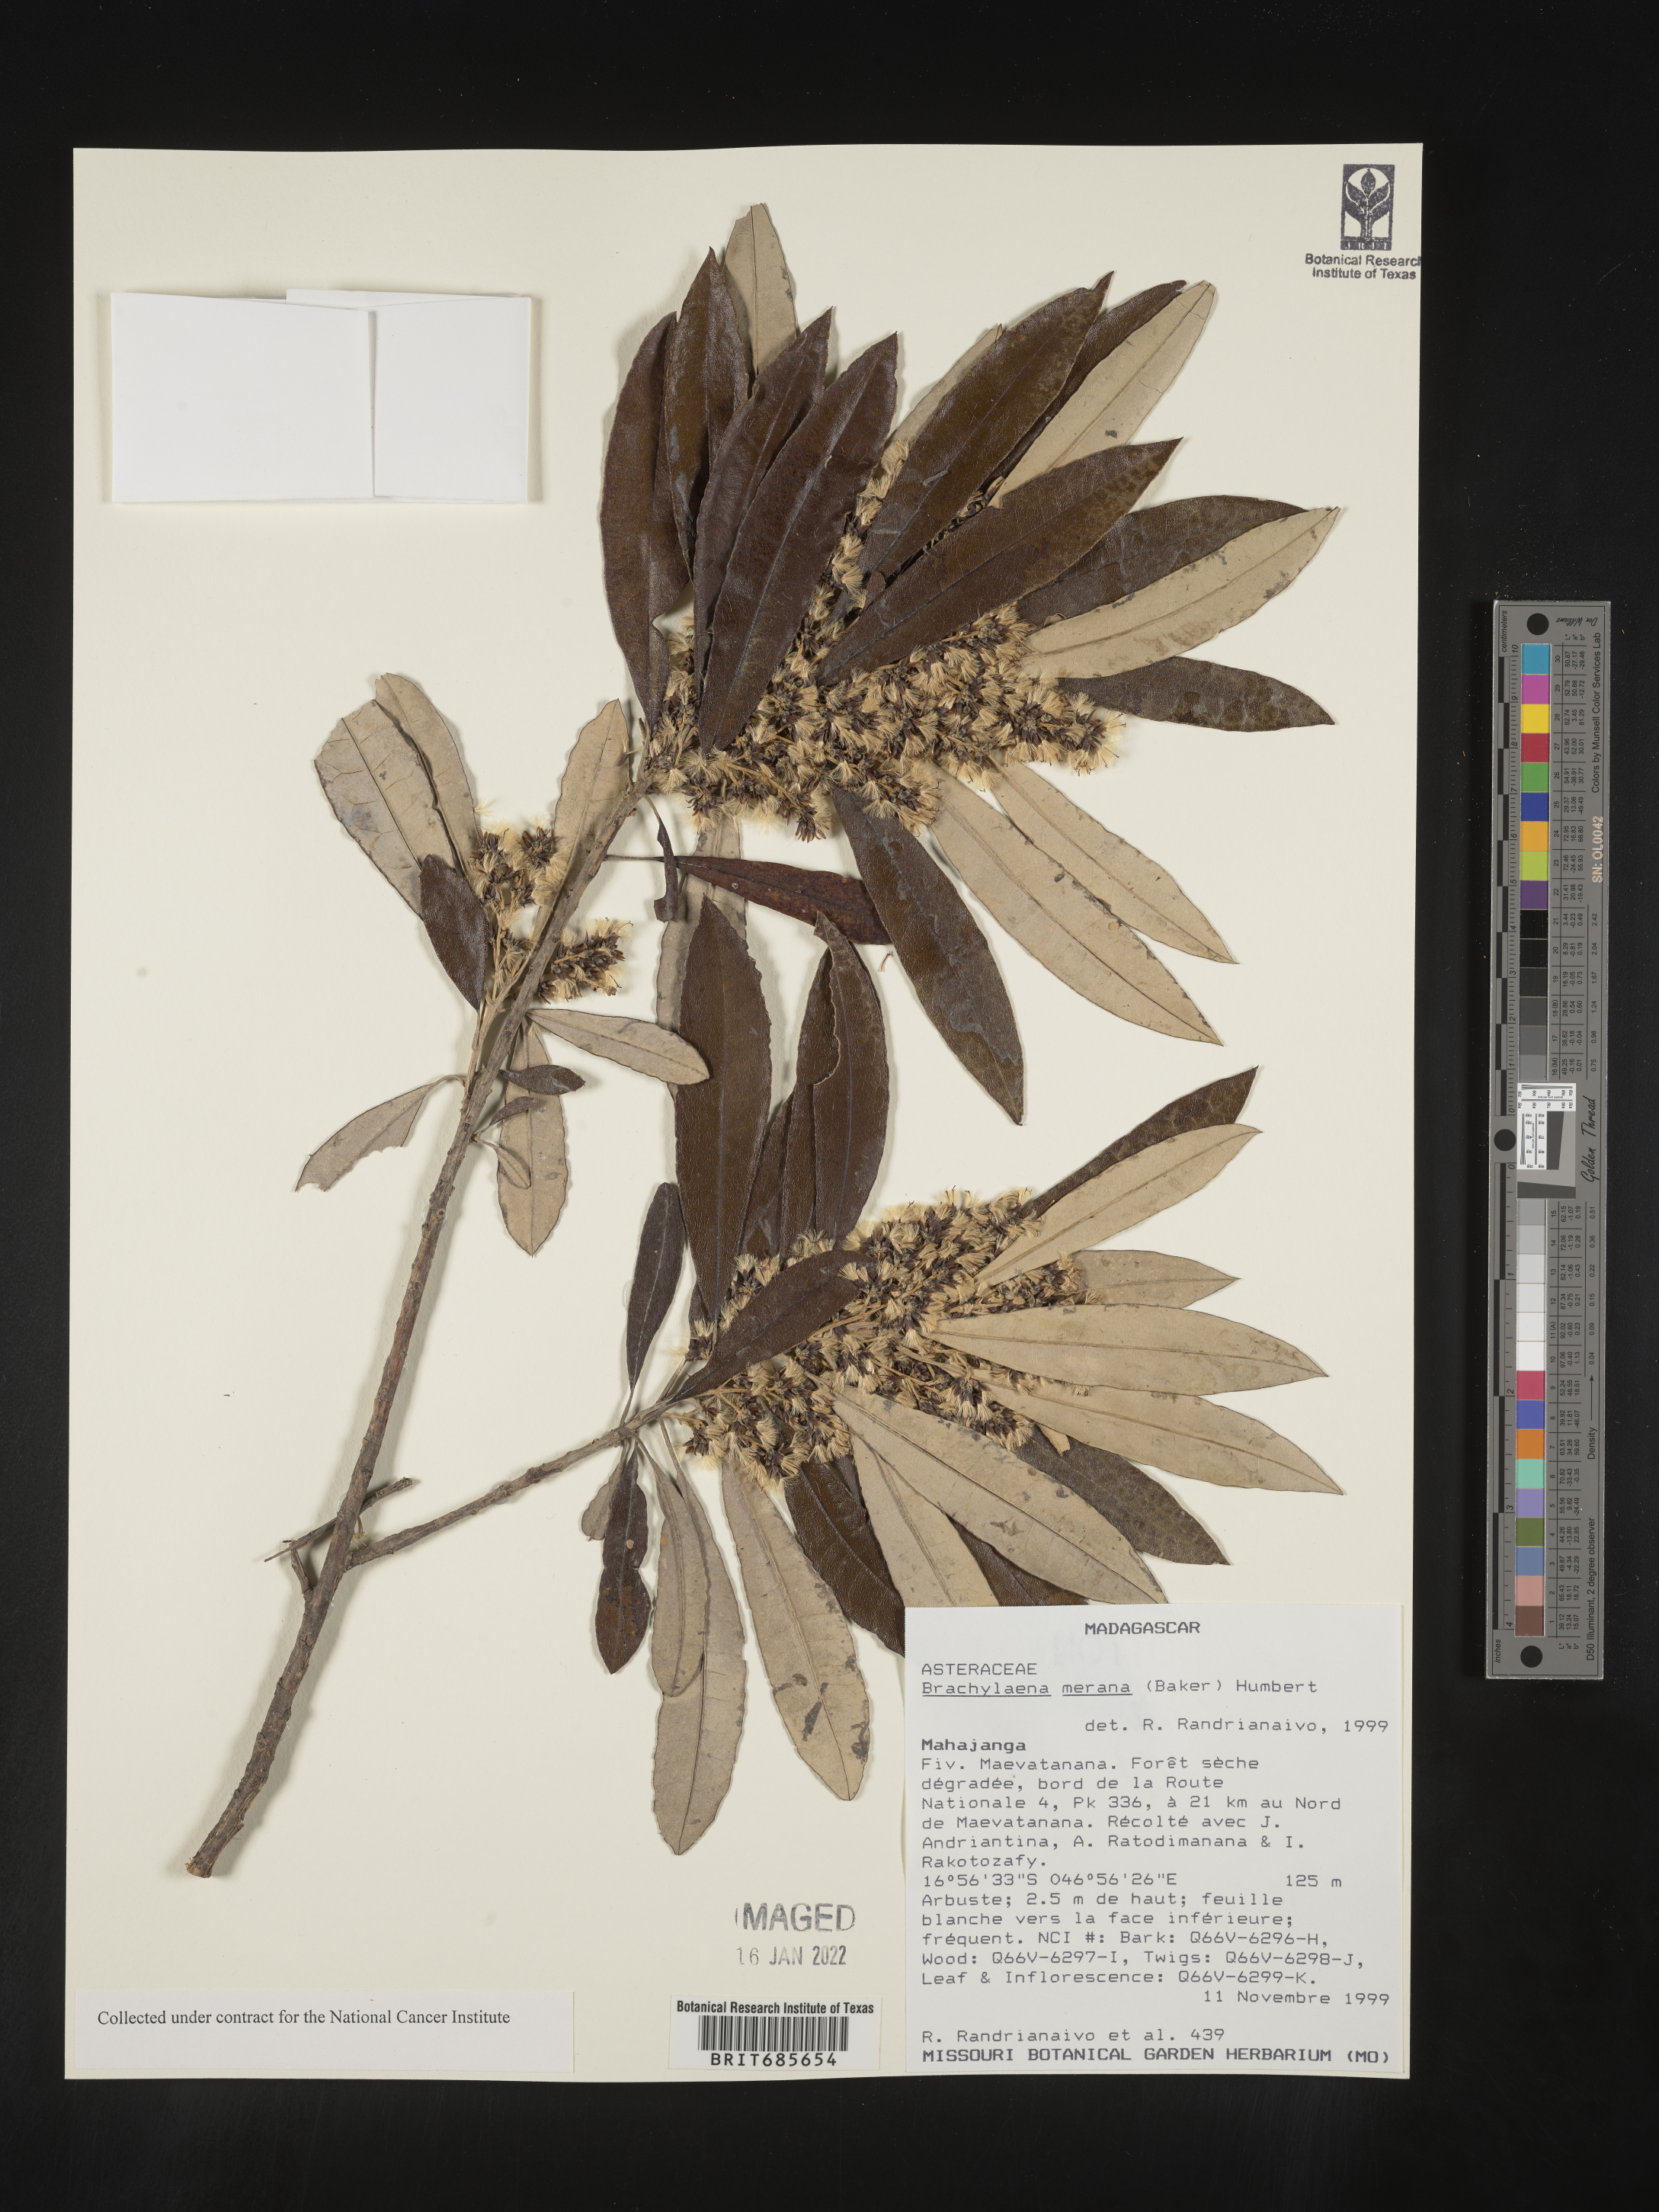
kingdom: Plantae
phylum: Tracheophyta
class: Magnoliopsida
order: Asterales
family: Asteraceae
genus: Brachylaena
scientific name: Brachylaena
